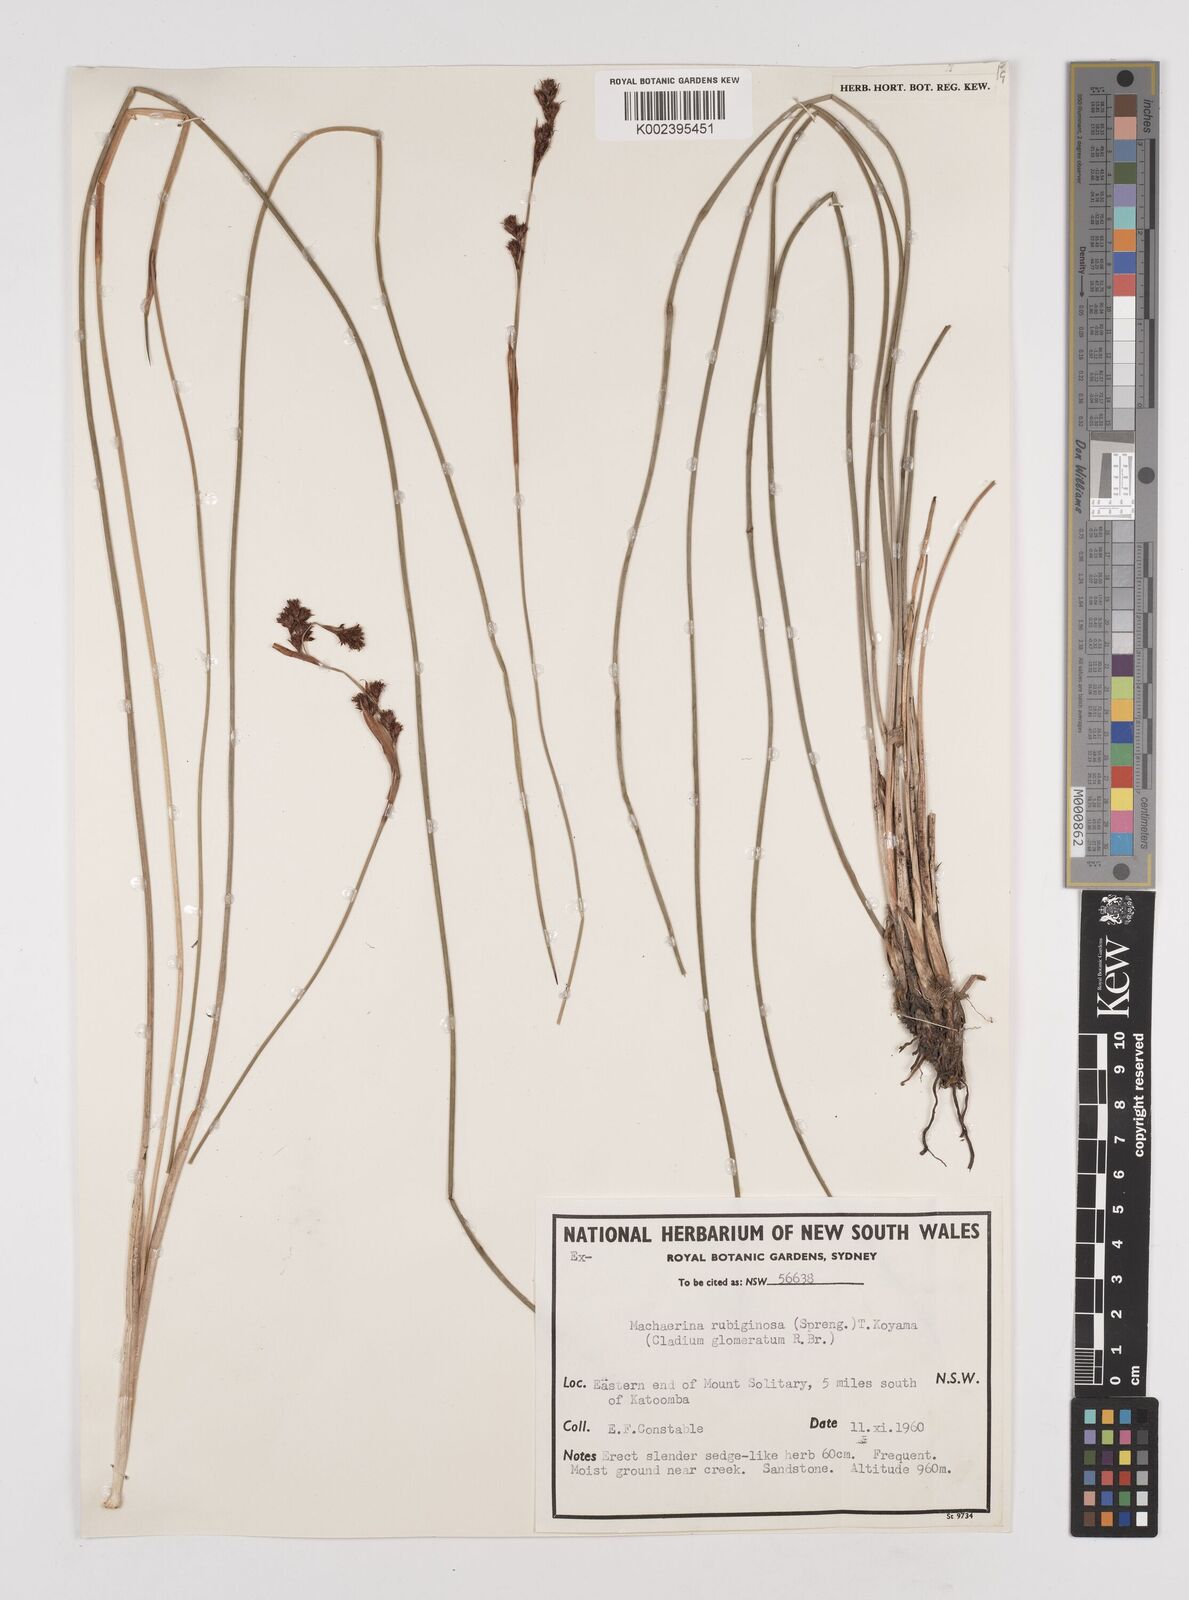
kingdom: Plantae
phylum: Tracheophyta
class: Liliopsida
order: Poales
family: Cyperaceae
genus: Machaerina
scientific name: Machaerina
